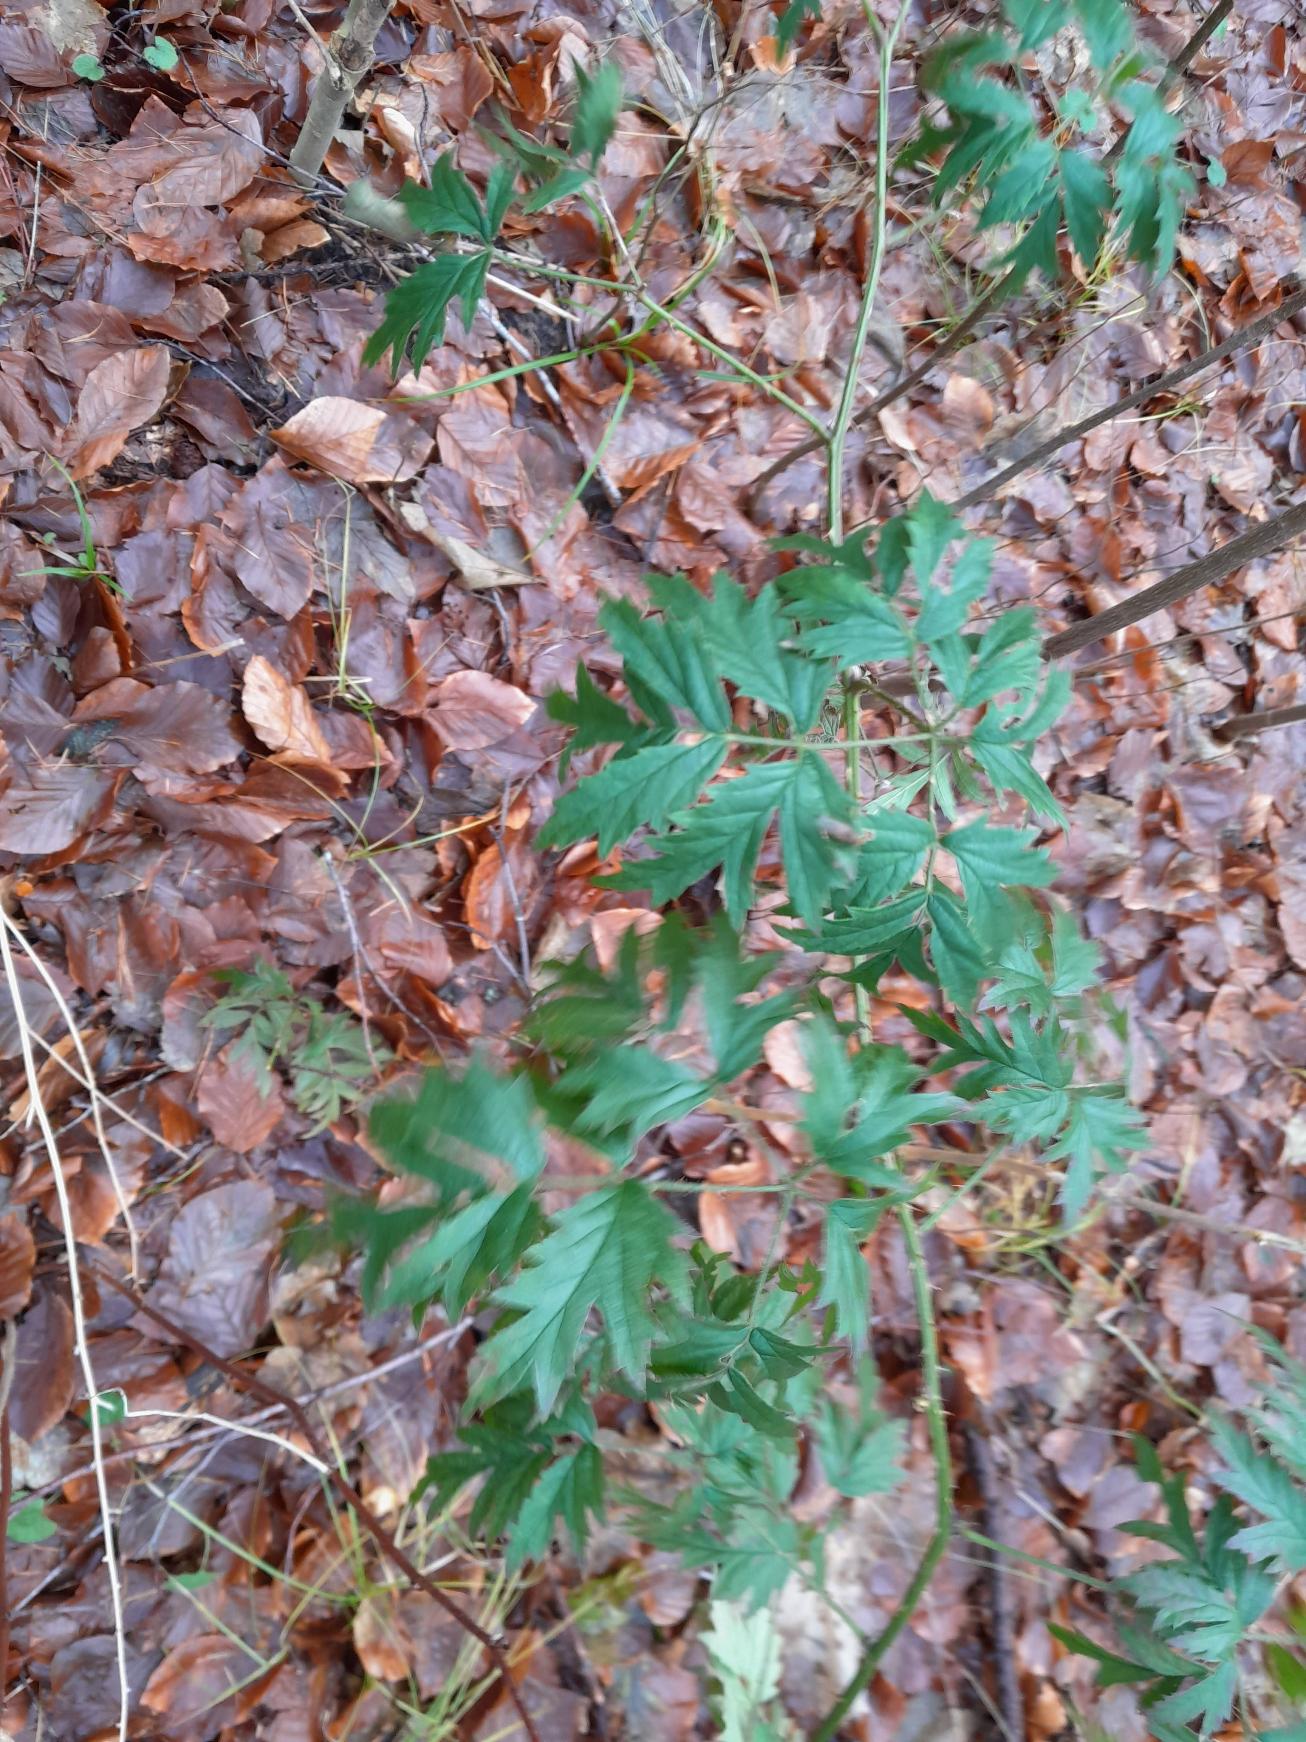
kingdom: Plantae
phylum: Tracheophyta
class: Magnoliopsida
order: Rosales
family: Rosaceae
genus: Rubus
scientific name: Rubus laciniatus
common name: Fliget brombær
